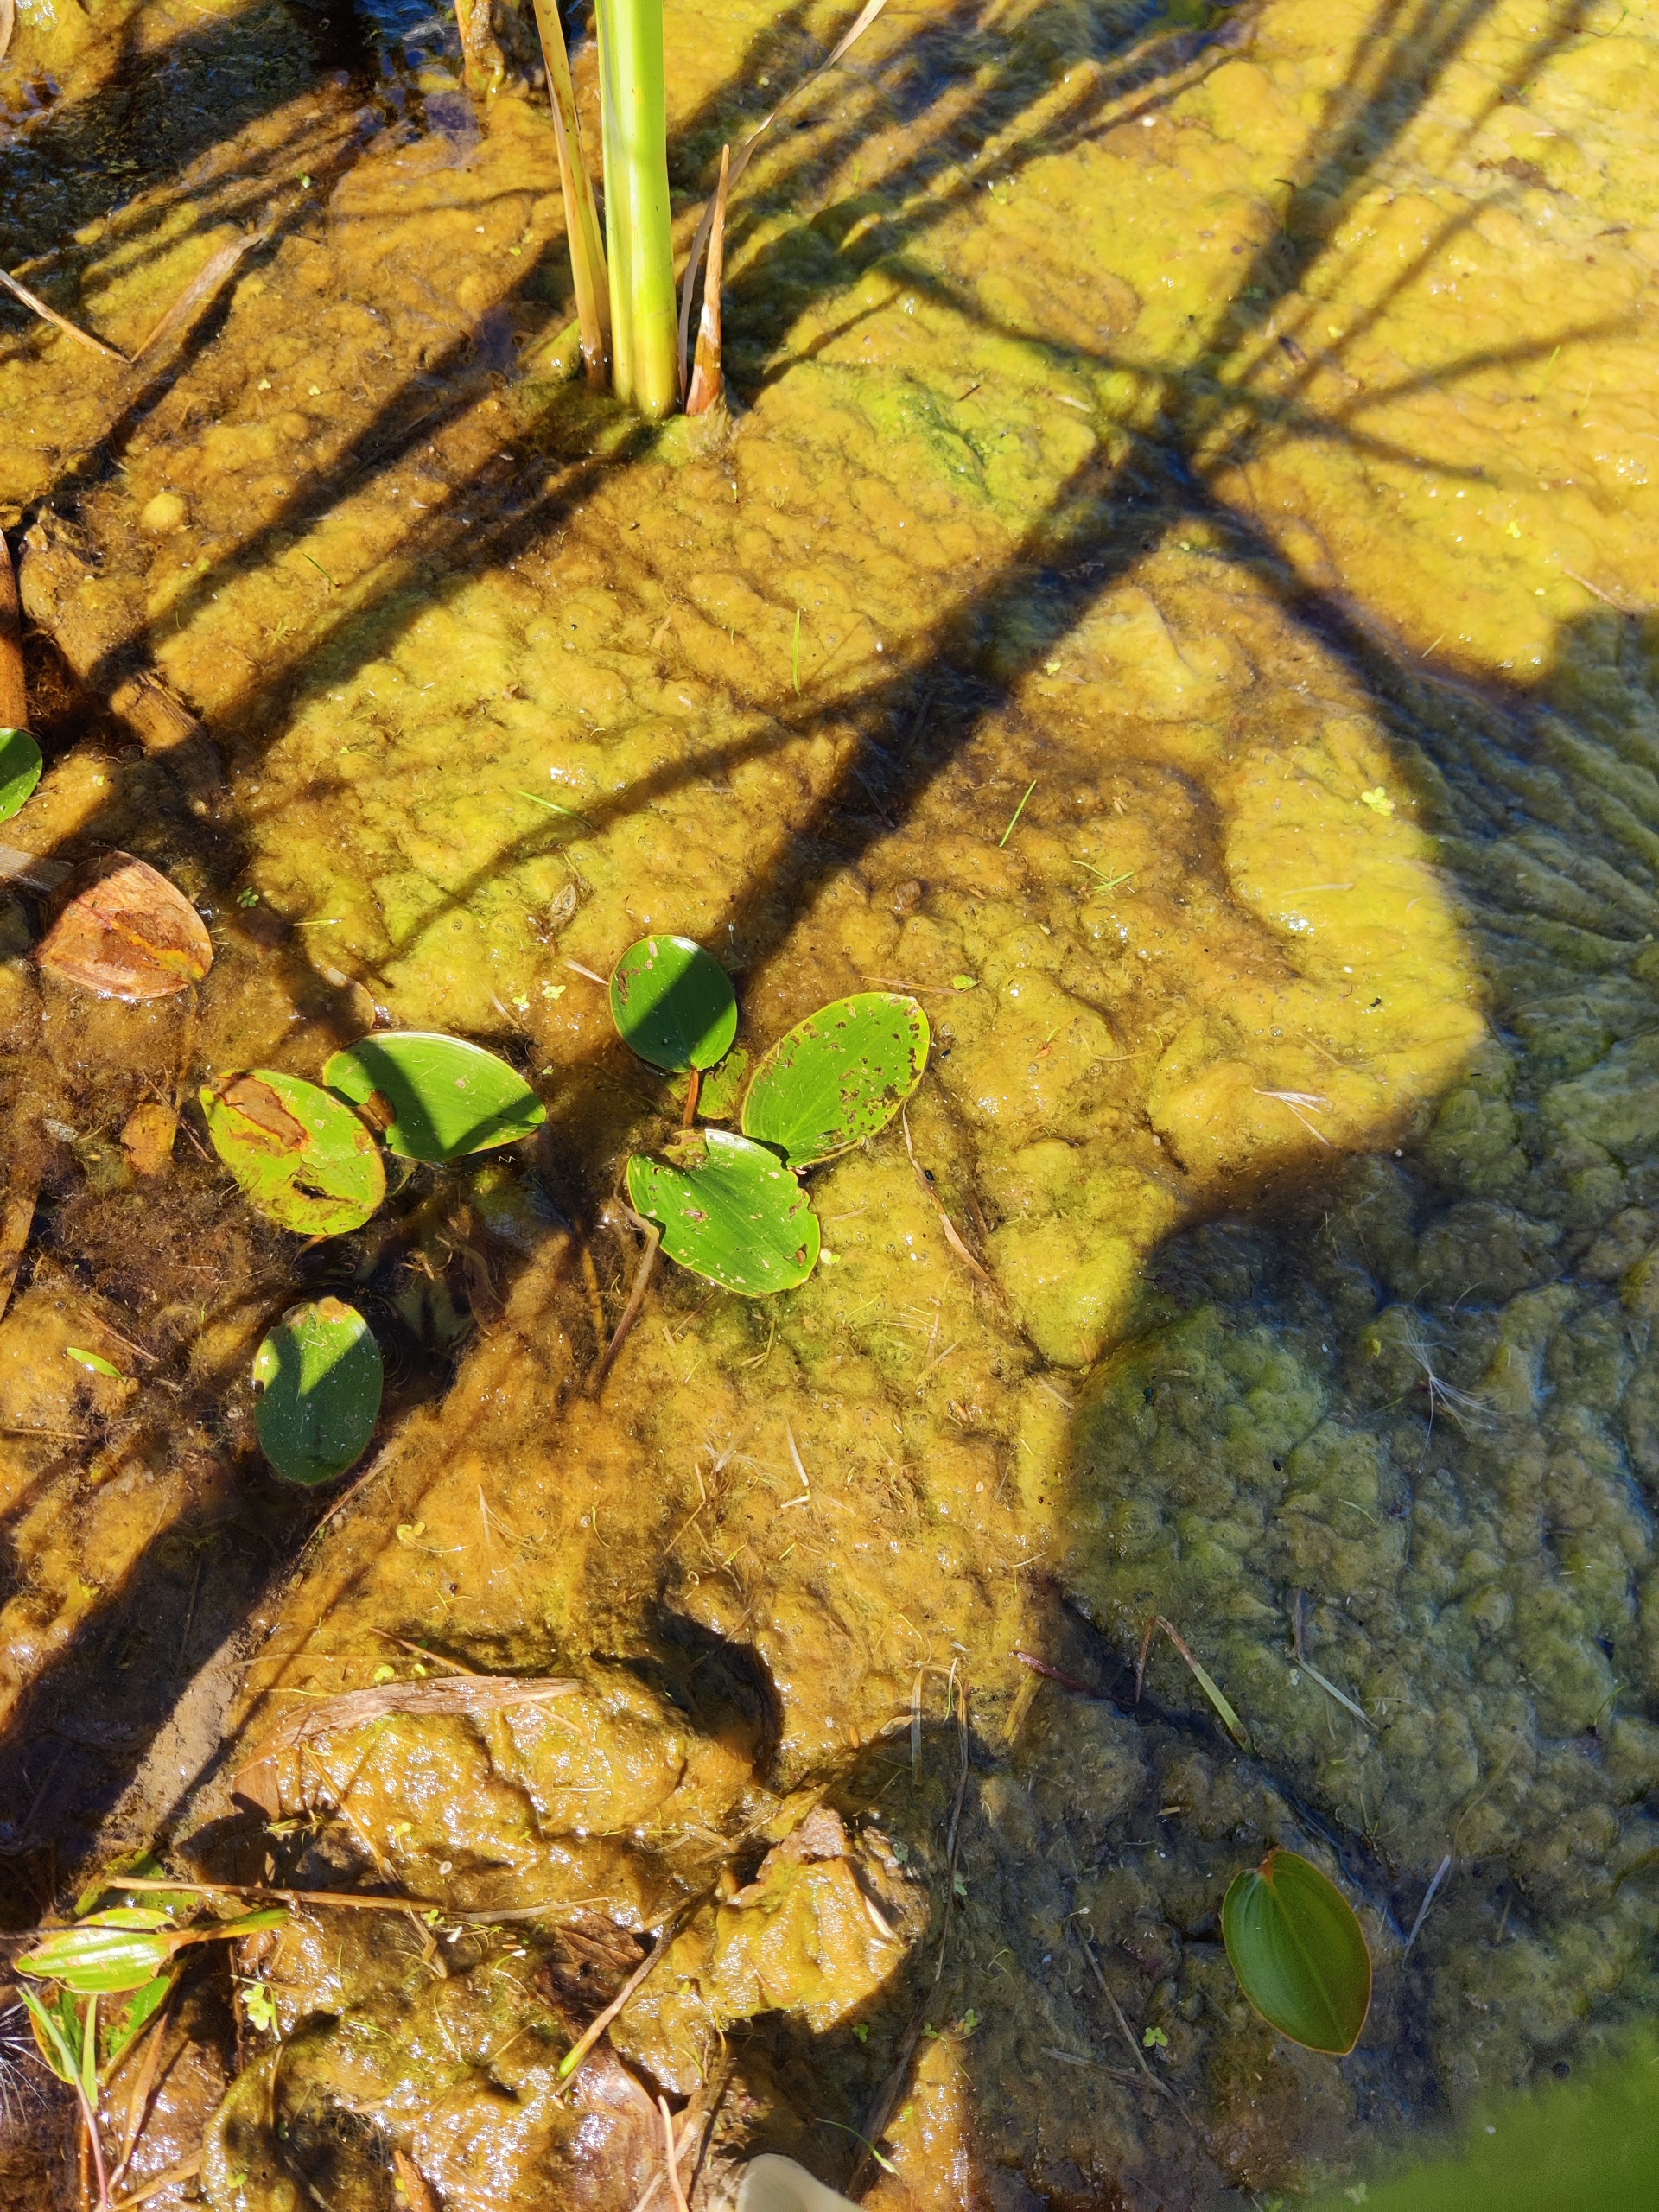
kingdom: Plantae
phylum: Tracheophyta
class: Liliopsida
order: Alismatales
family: Potamogetonaceae
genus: Potamogeton
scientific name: Potamogeton natans
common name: Svømmende vandaks
